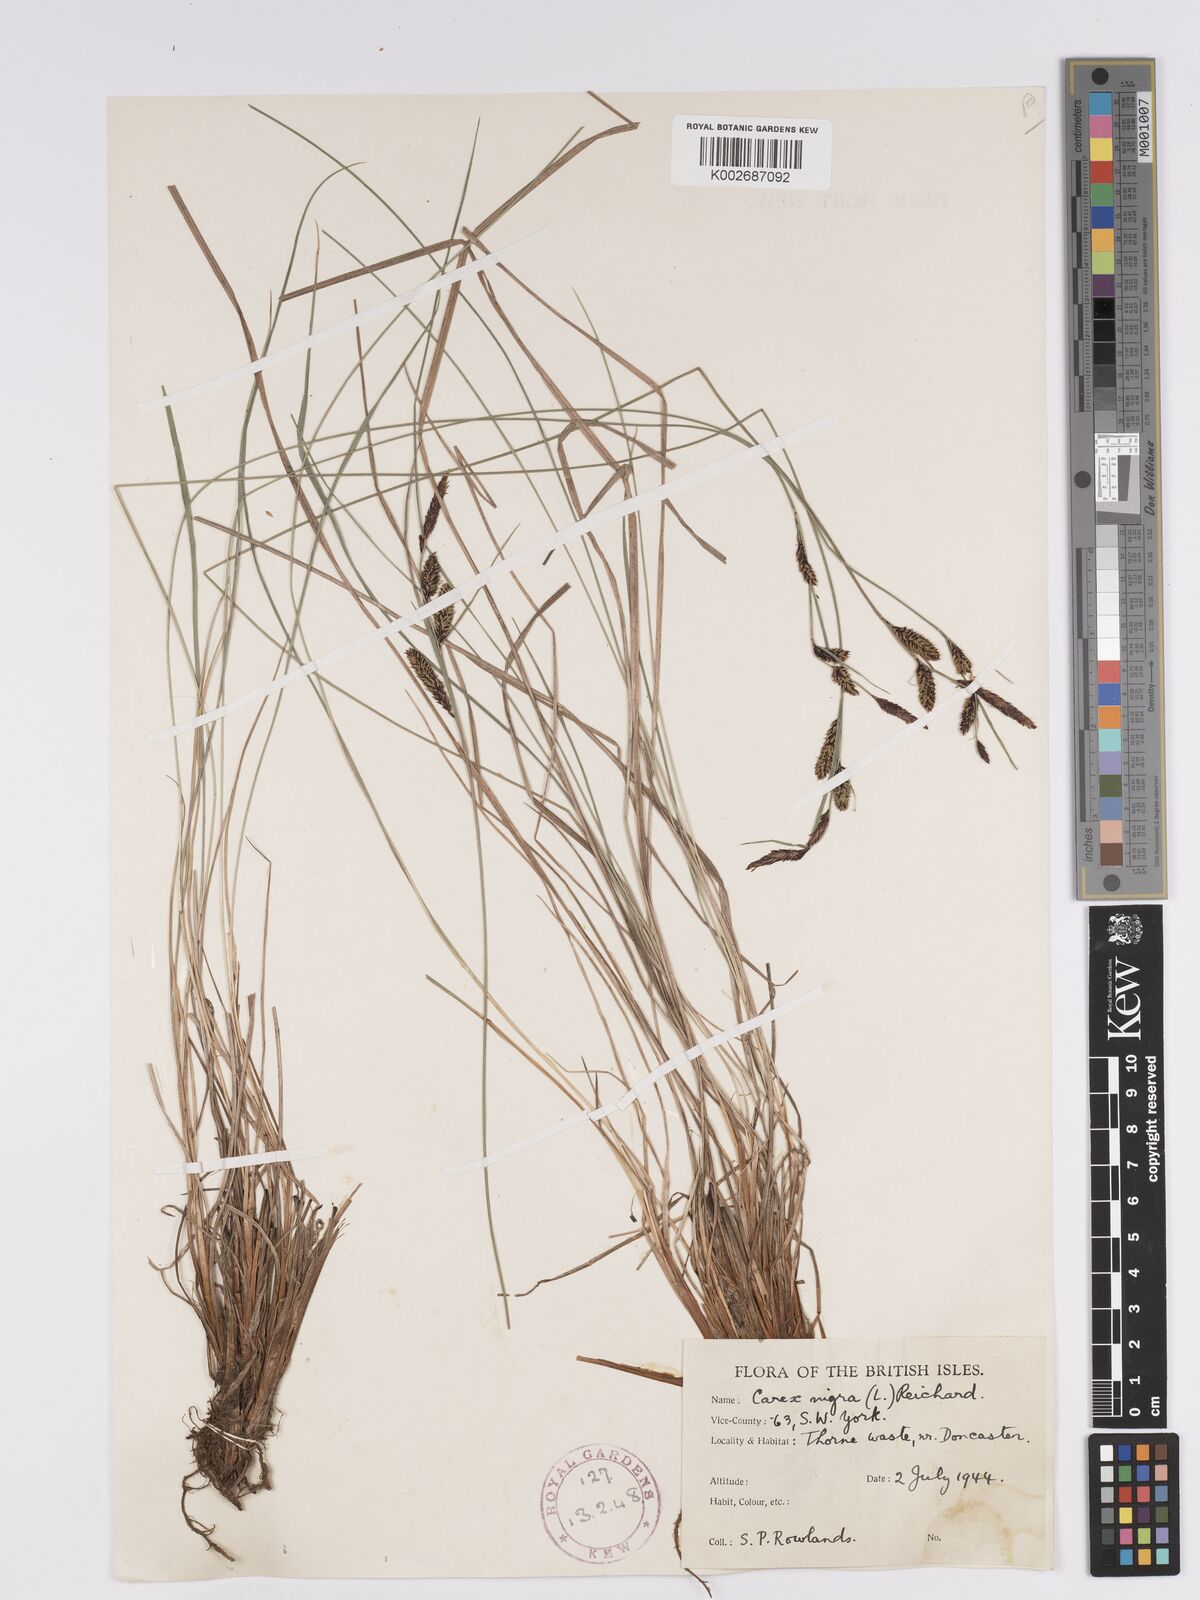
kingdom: Plantae
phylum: Tracheophyta
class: Liliopsida
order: Poales
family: Cyperaceae
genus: Carex
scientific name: Carex nigra
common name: Common sedge
